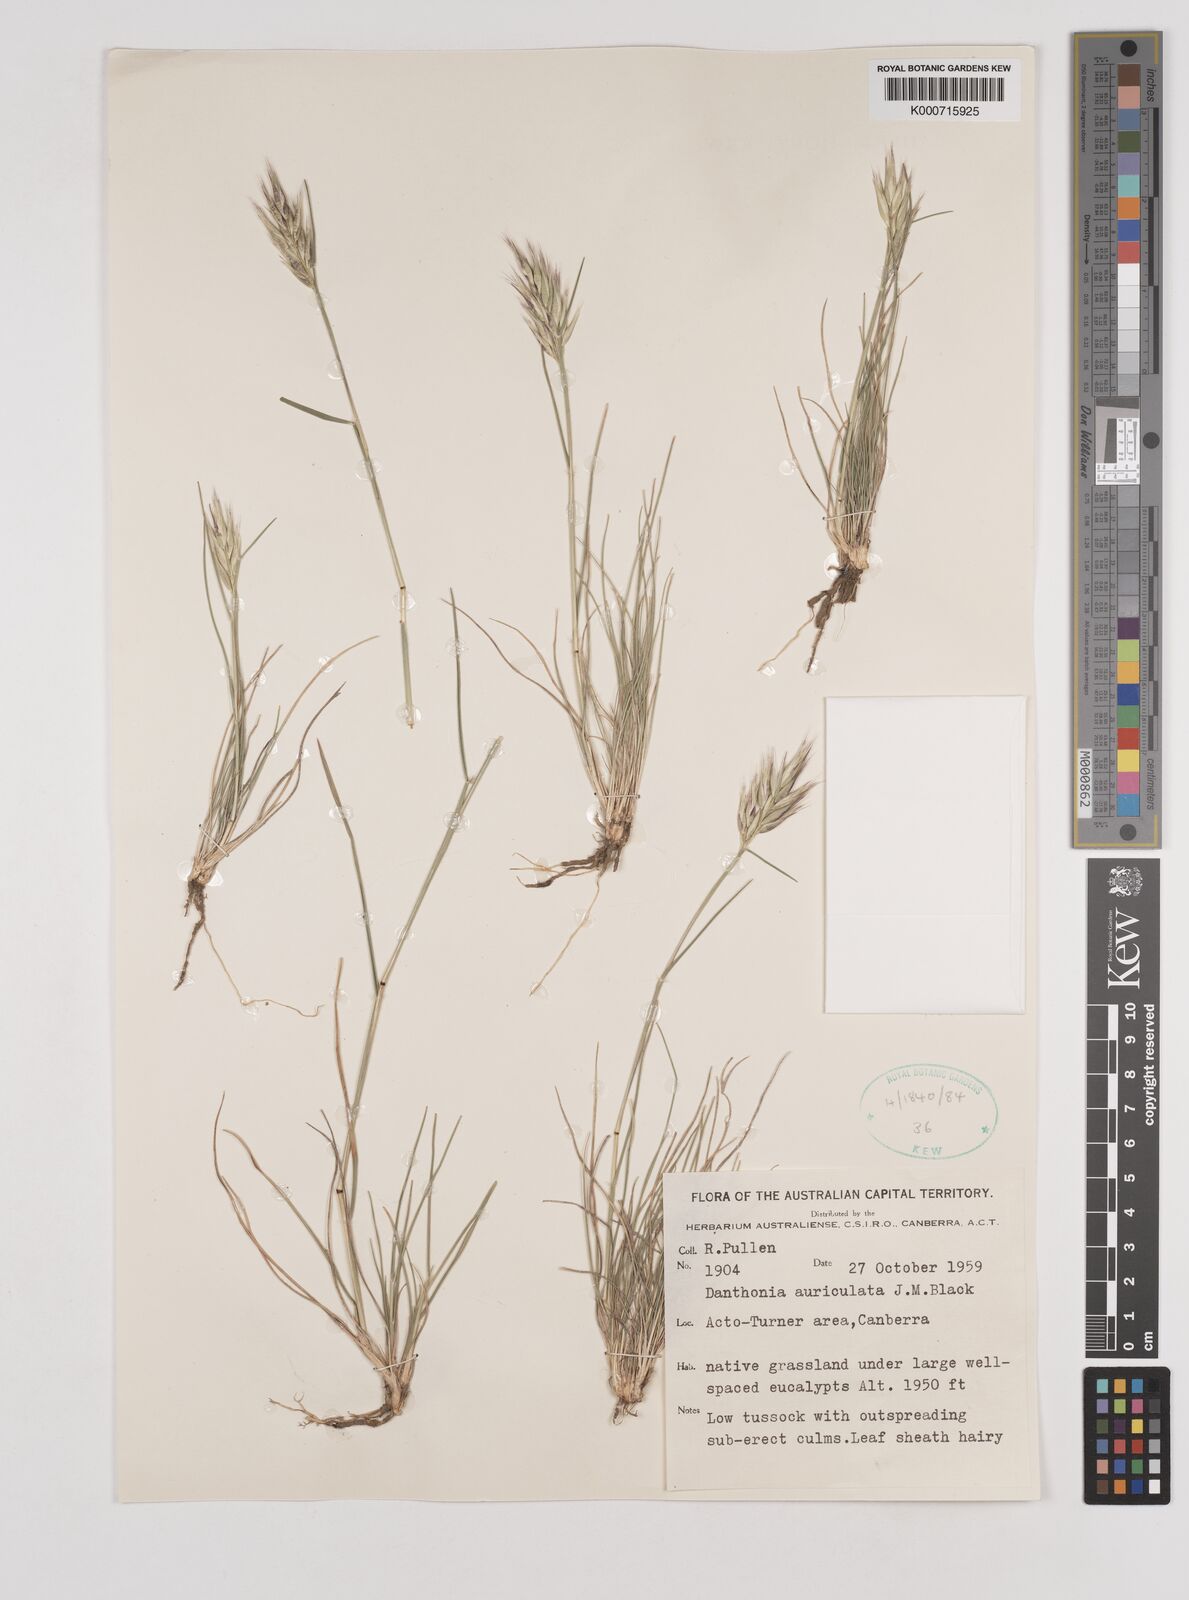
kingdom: Plantae
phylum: Tracheophyta
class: Liliopsida
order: Poales
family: Poaceae
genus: Rytidosperma
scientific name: Rytidosperma auriculatum
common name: Lobed wallaby grass
